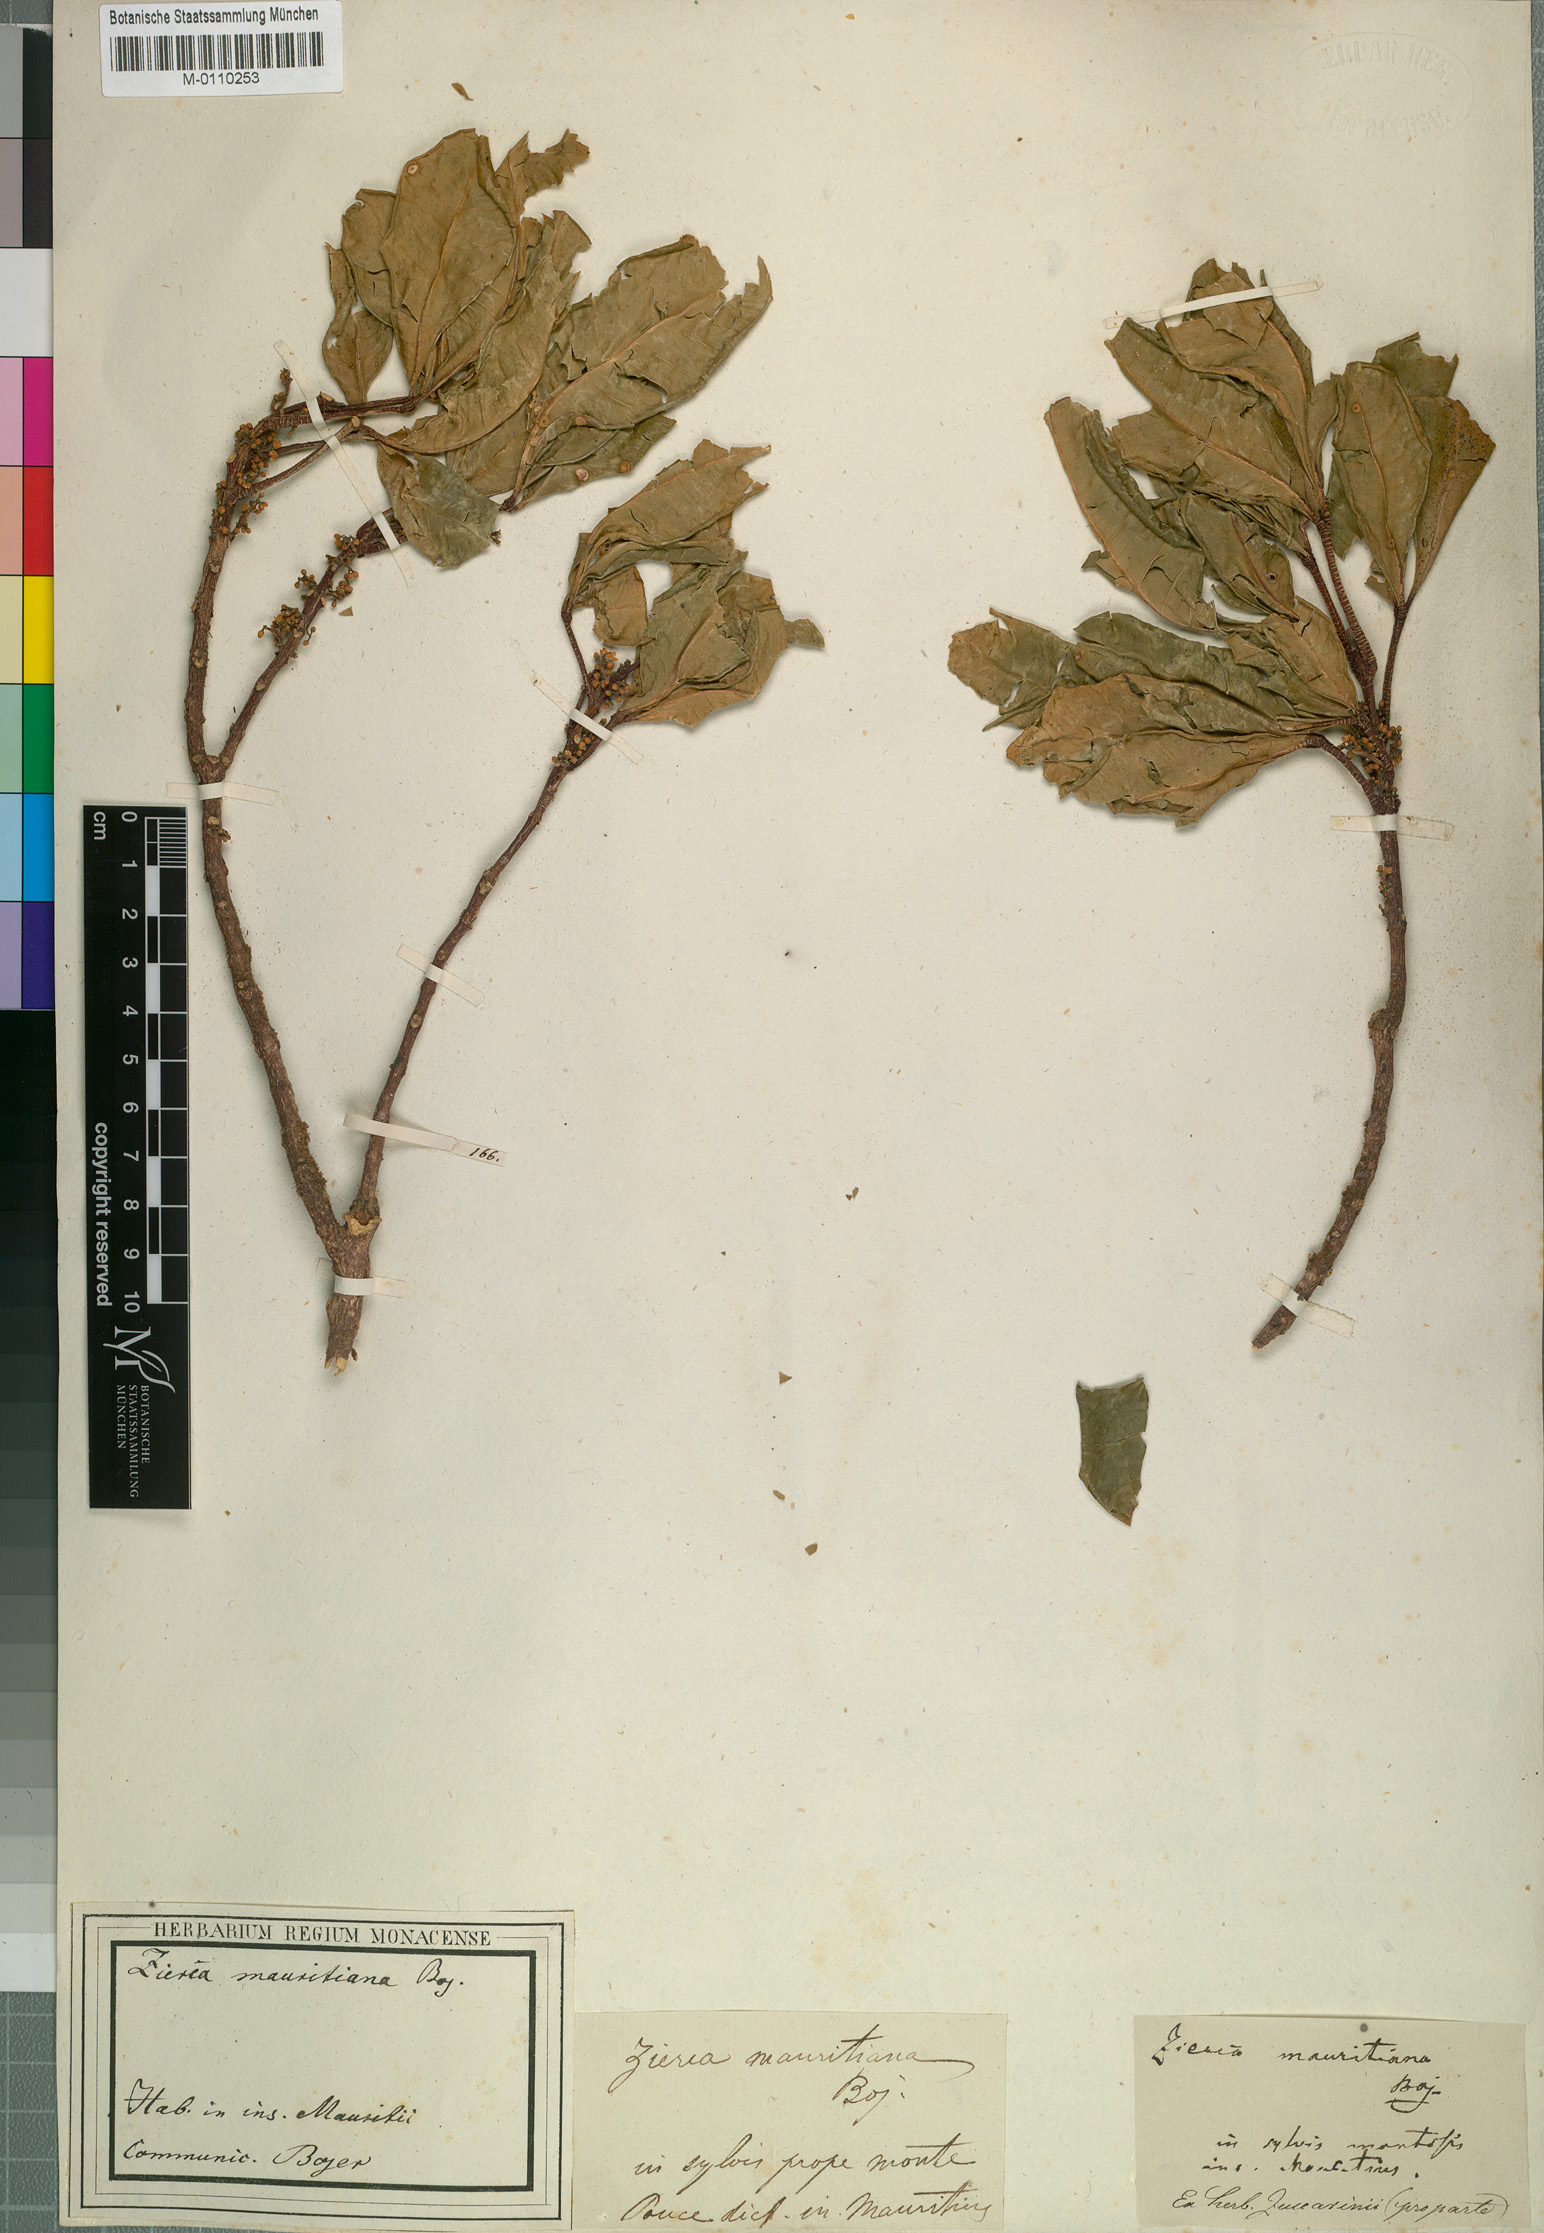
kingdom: Plantae
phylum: Tracheophyta
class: Magnoliopsida
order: Sapindales
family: Rutaceae
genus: Melicope
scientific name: Melicope obtusifolia
